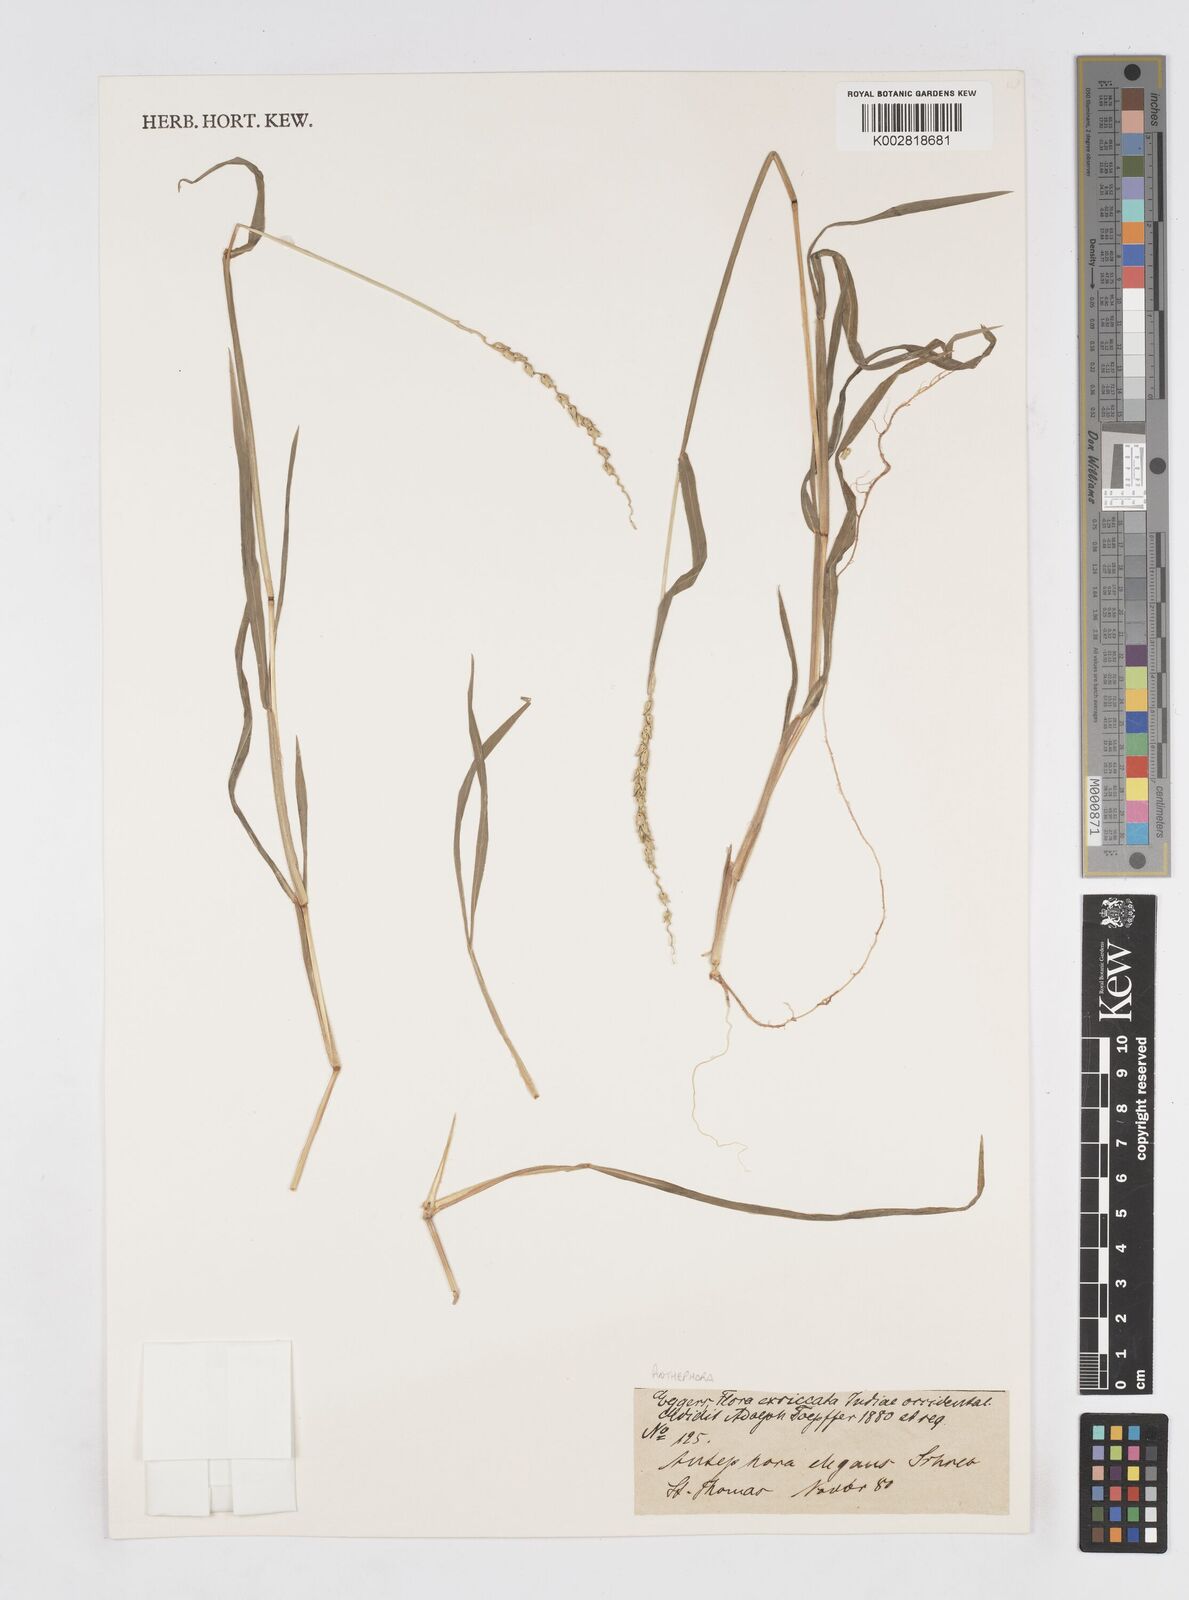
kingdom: Plantae
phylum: Tracheophyta
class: Liliopsida
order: Poales
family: Poaceae
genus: Anthephora
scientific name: Anthephora hermaphrodita
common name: Oldfield grass
